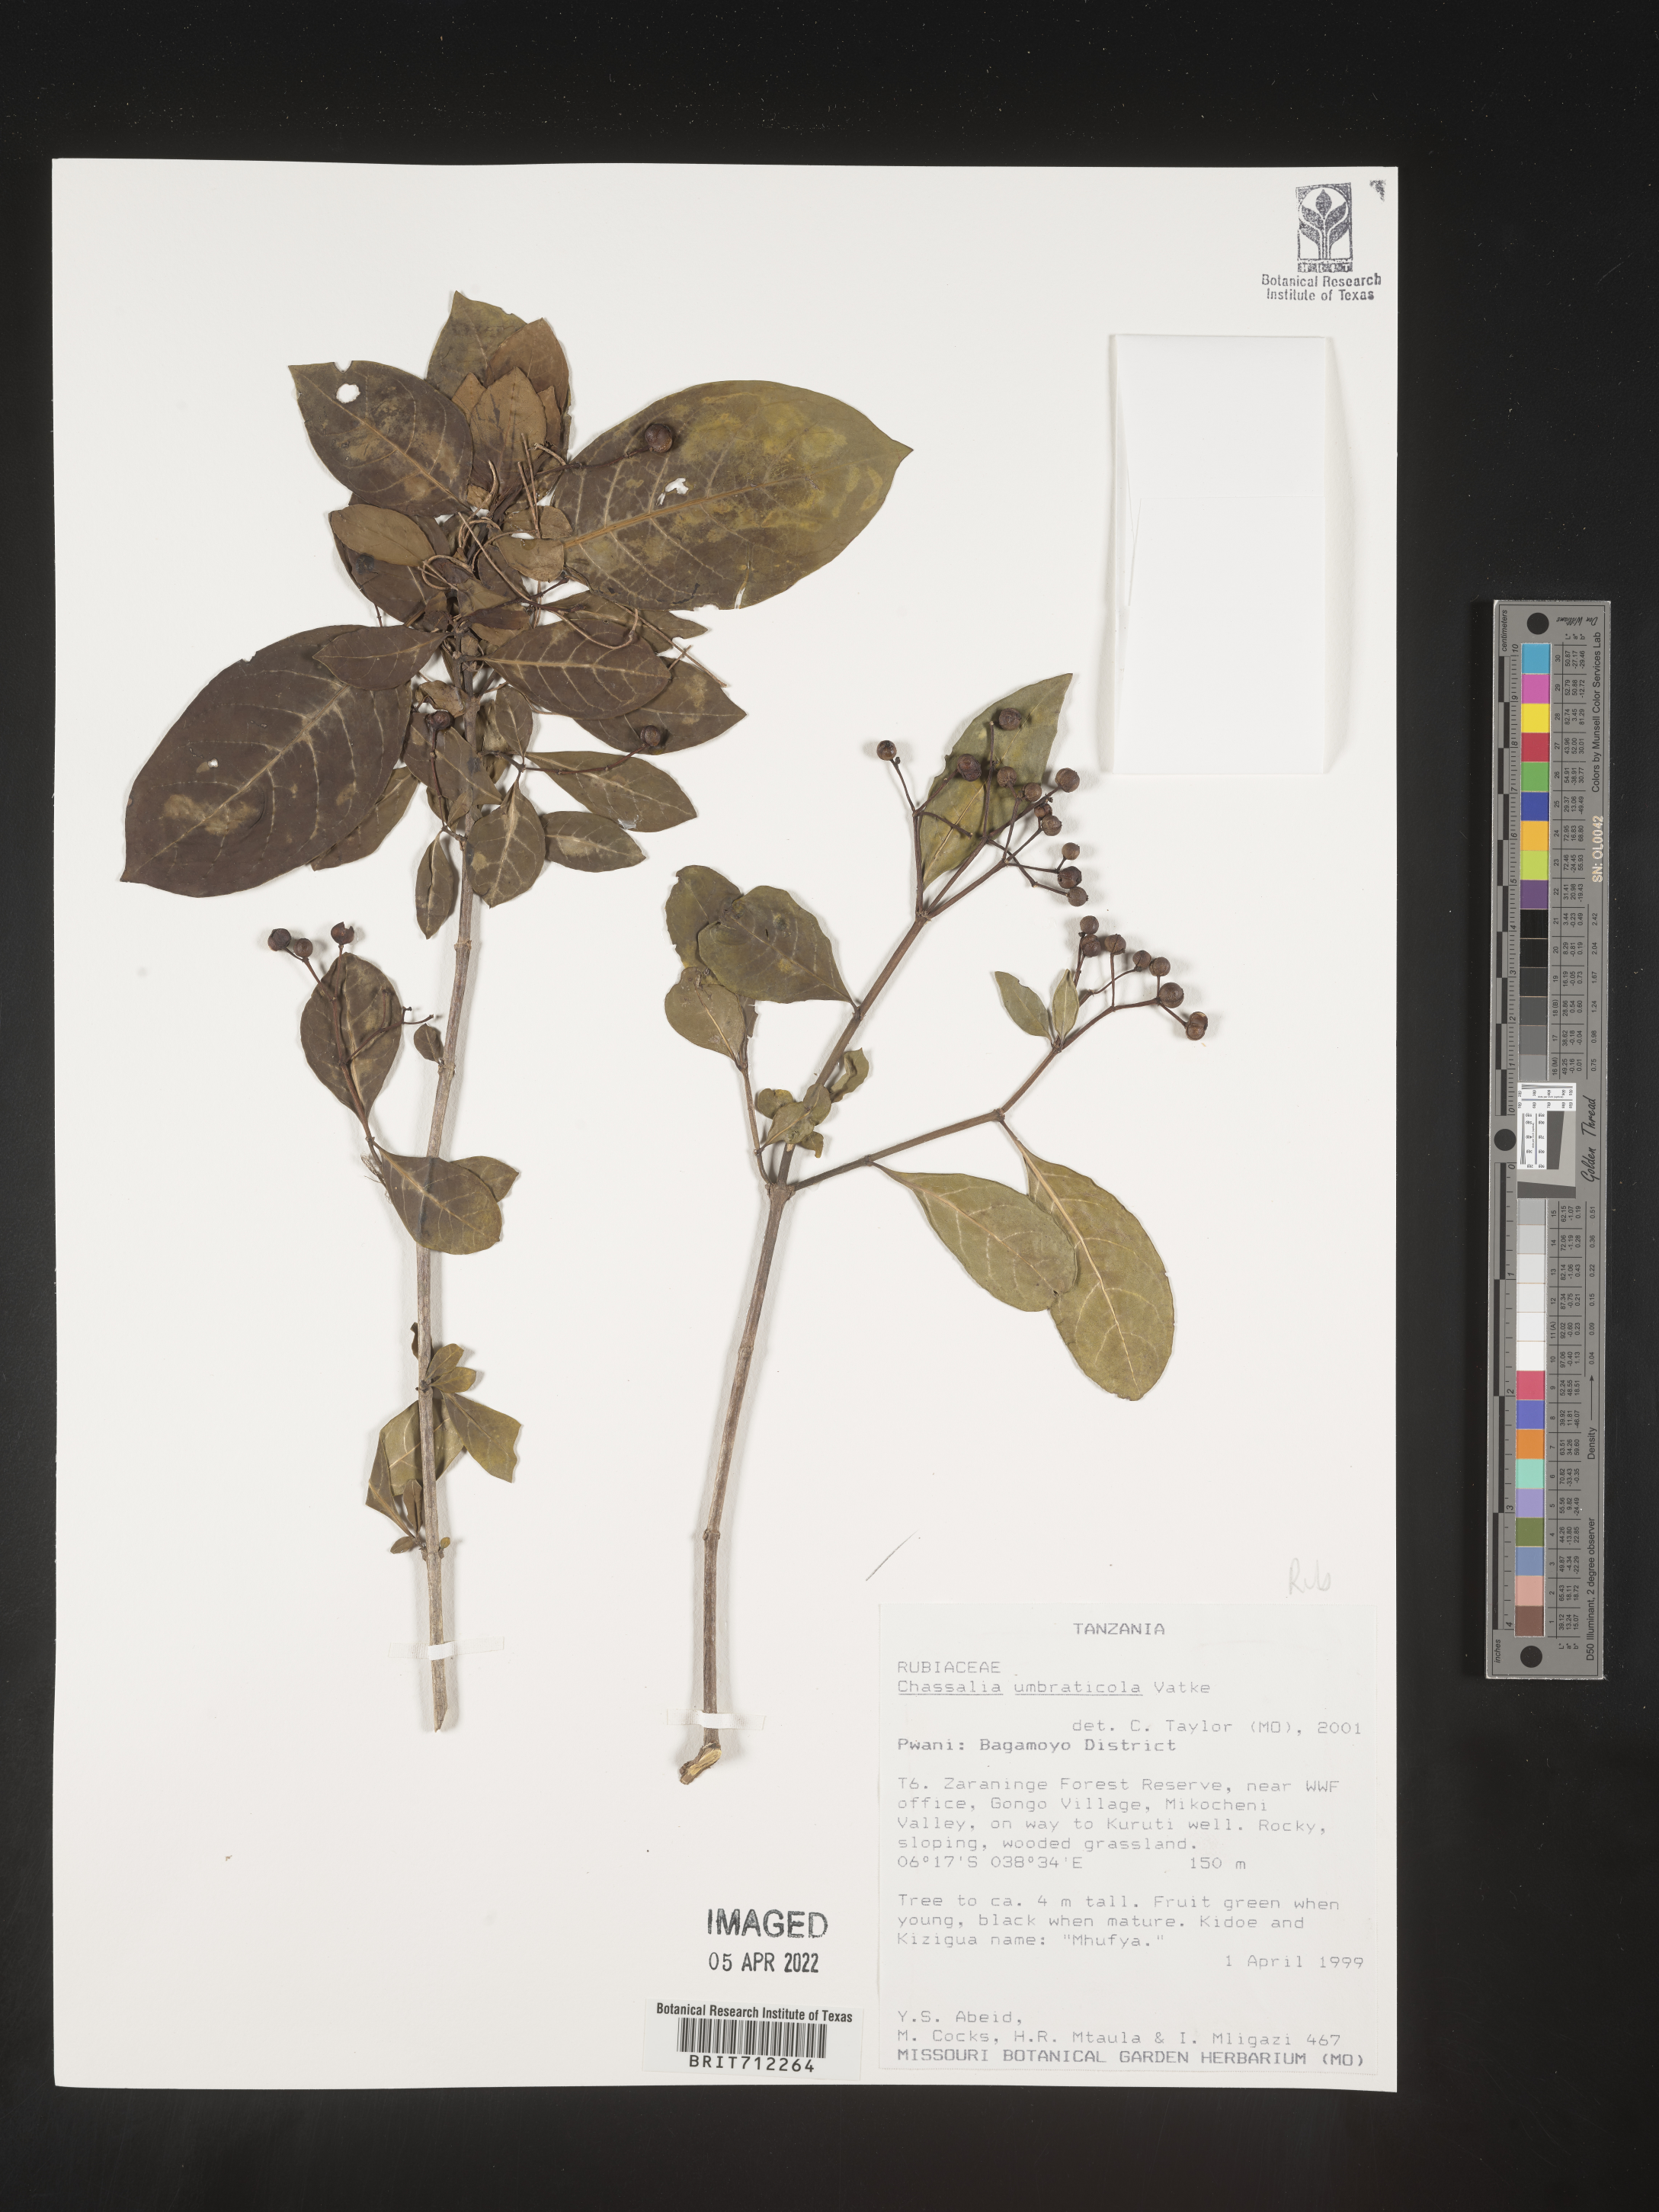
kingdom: Plantae
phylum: Tracheophyta
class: Magnoliopsida
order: Gentianales
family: Rubiaceae
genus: Chassalia
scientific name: Chassalia
